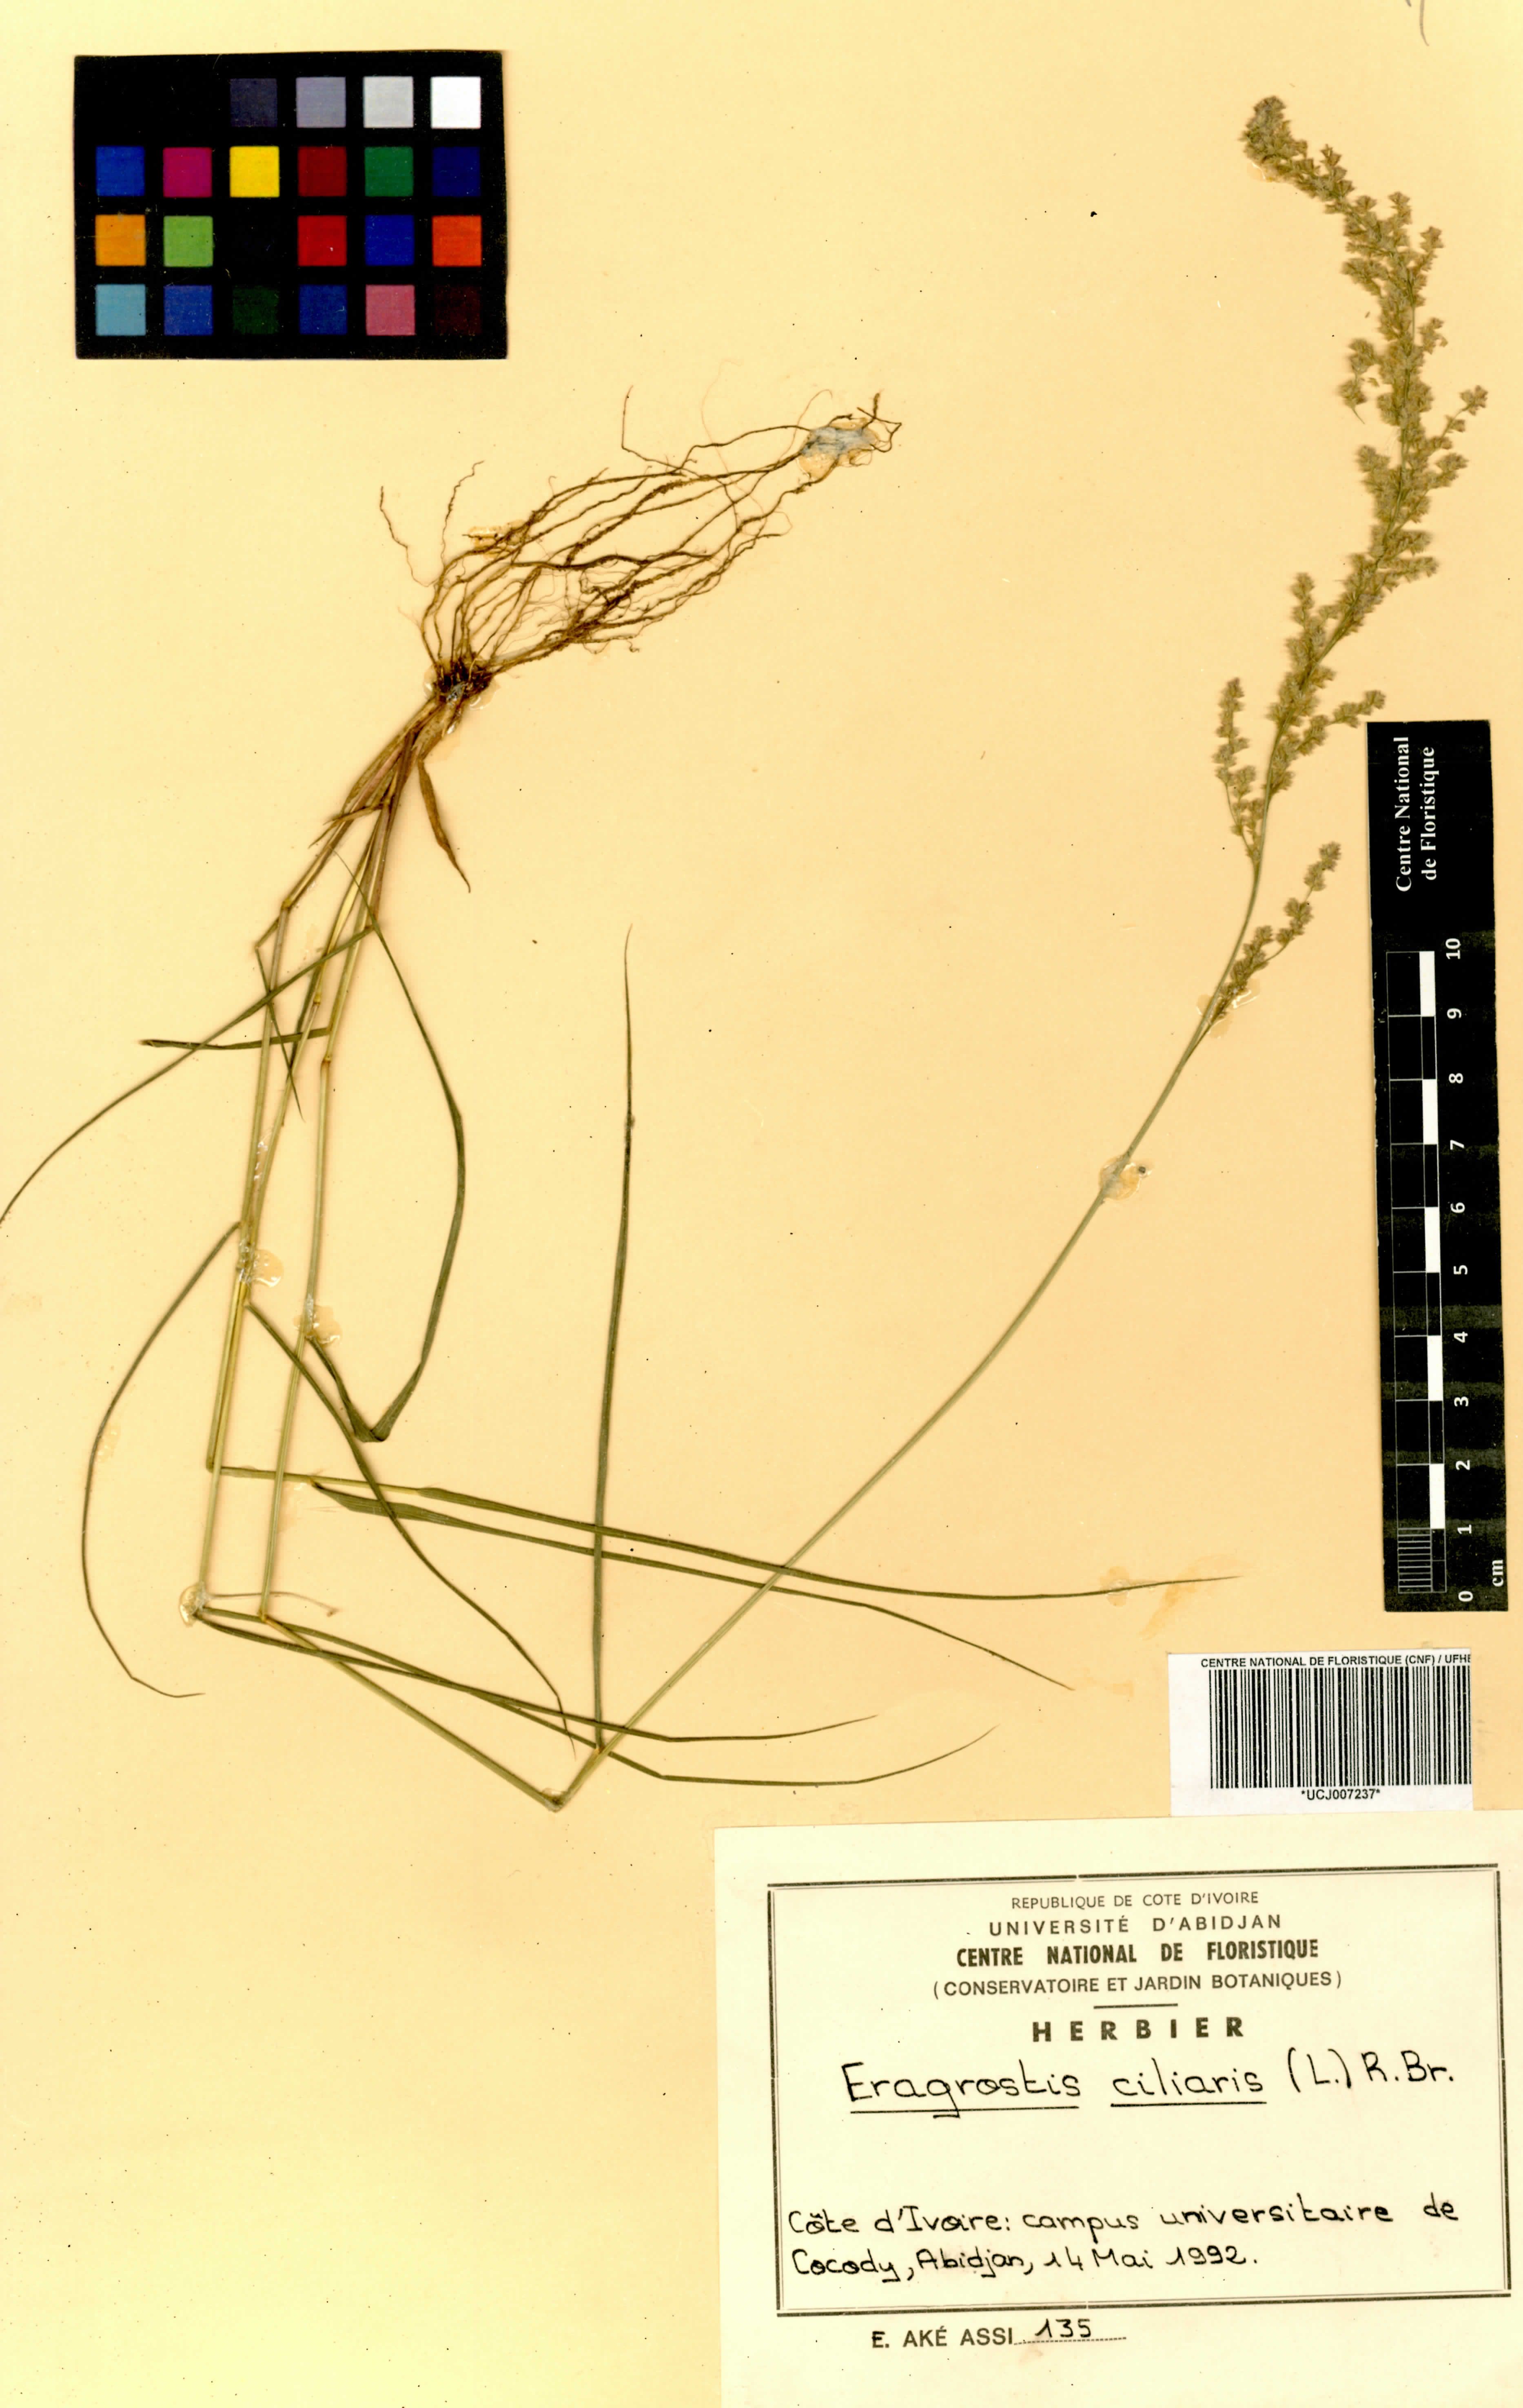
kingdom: Plantae
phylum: Tracheophyta
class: Liliopsida
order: Poales
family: Poaceae
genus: Eragrostis
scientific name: Eragrostis ciliaris
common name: Gophertail lovegrass
